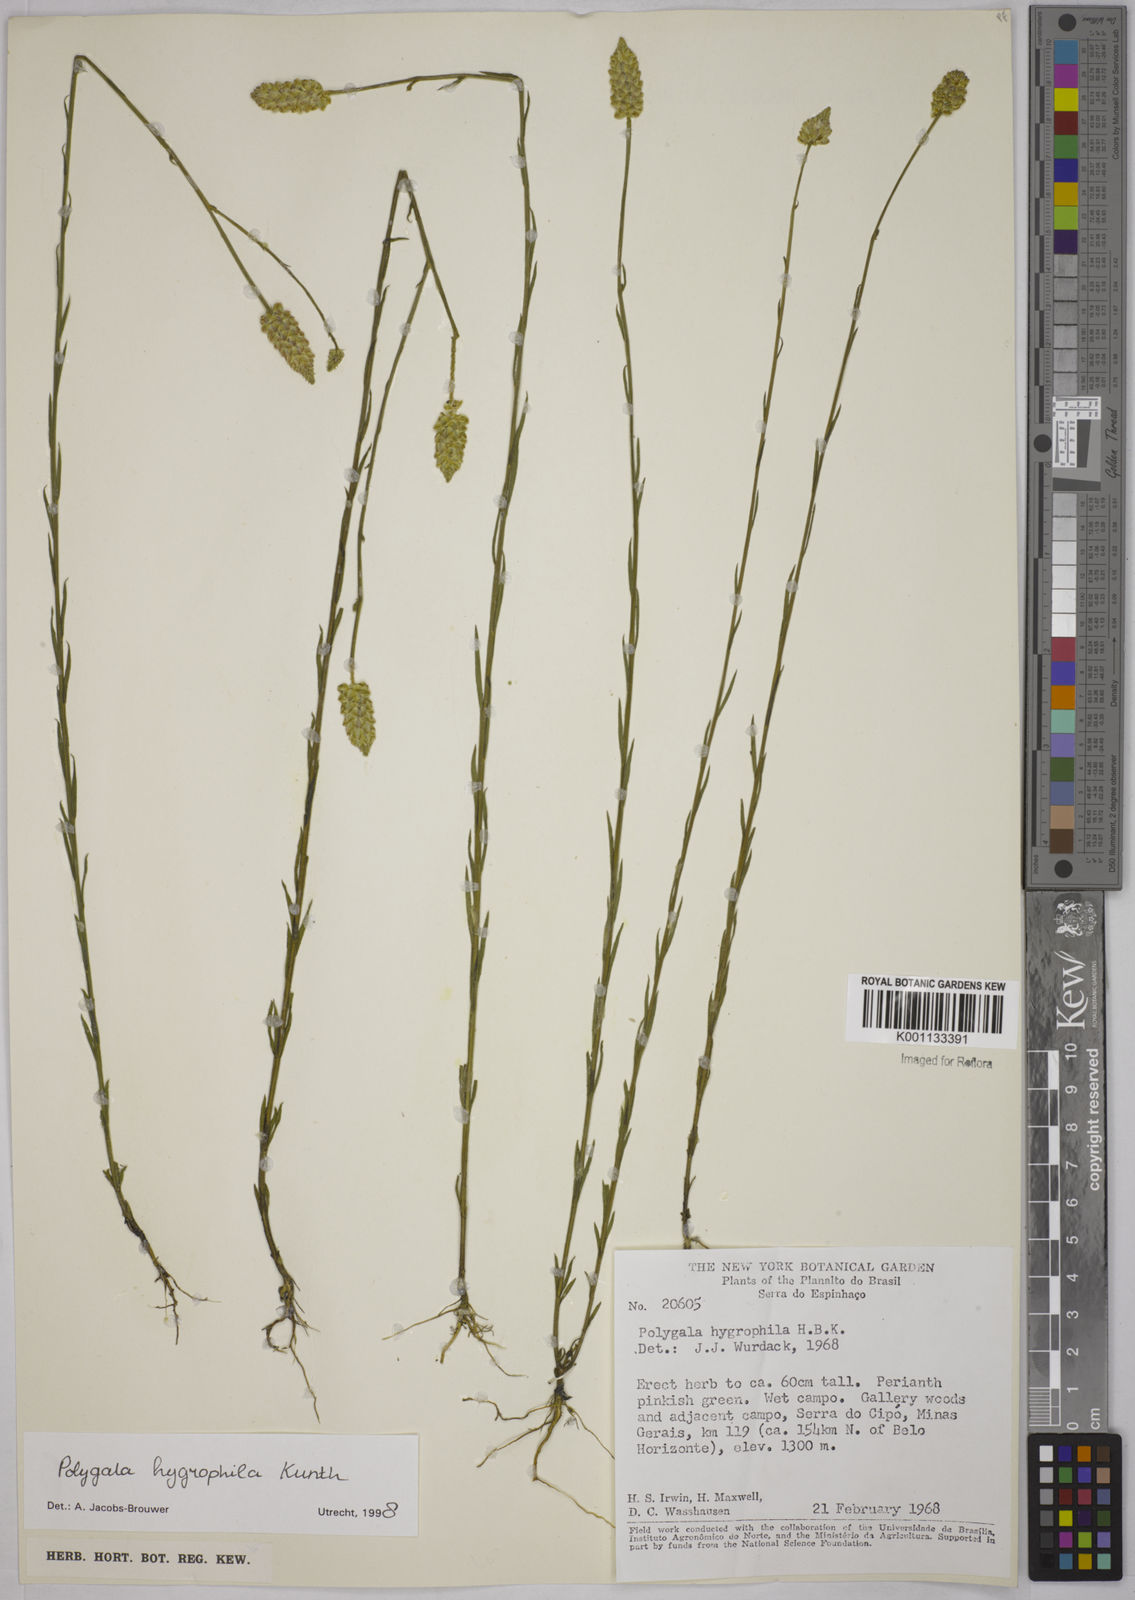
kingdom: Plantae
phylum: Tracheophyta
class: Magnoliopsida
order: Fabales
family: Polygalaceae
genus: Polygala
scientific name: Polygala hygrophila
